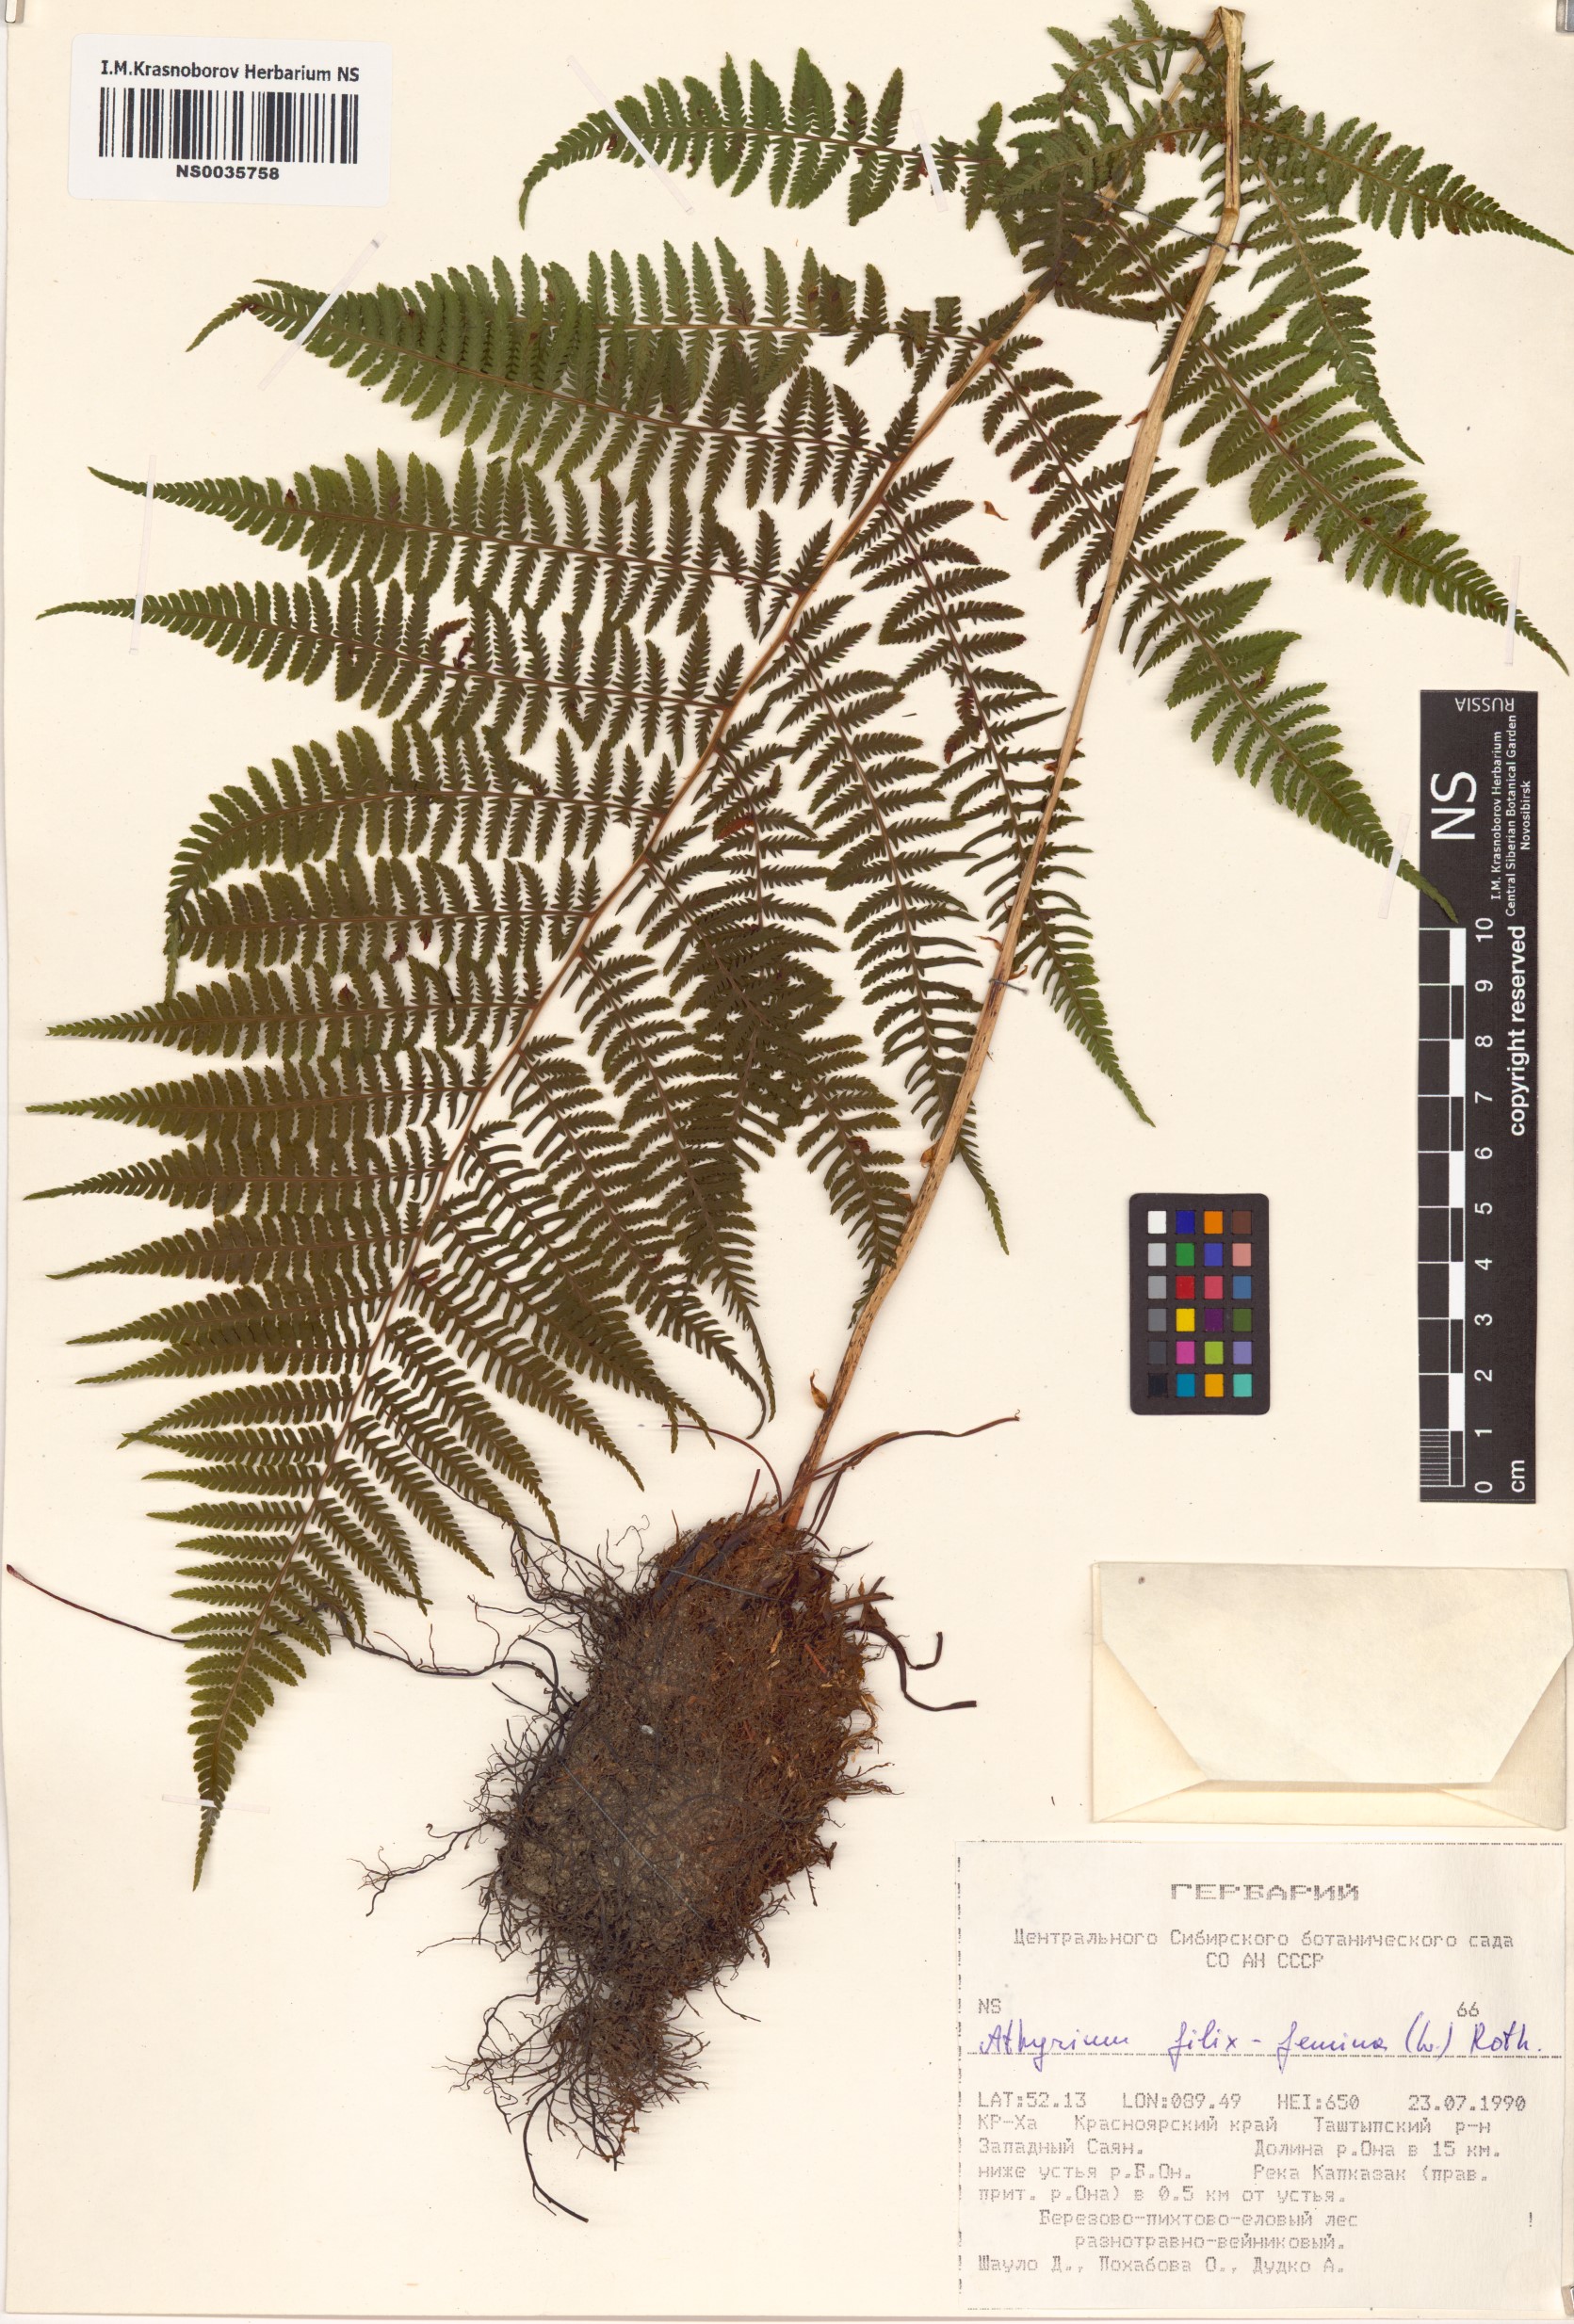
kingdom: Plantae
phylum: Tracheophyta
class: Polypodiopsida
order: Polypodiales
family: Athyriaceae
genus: Athyrium
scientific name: Athyrium filix-femina
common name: Lady fern
